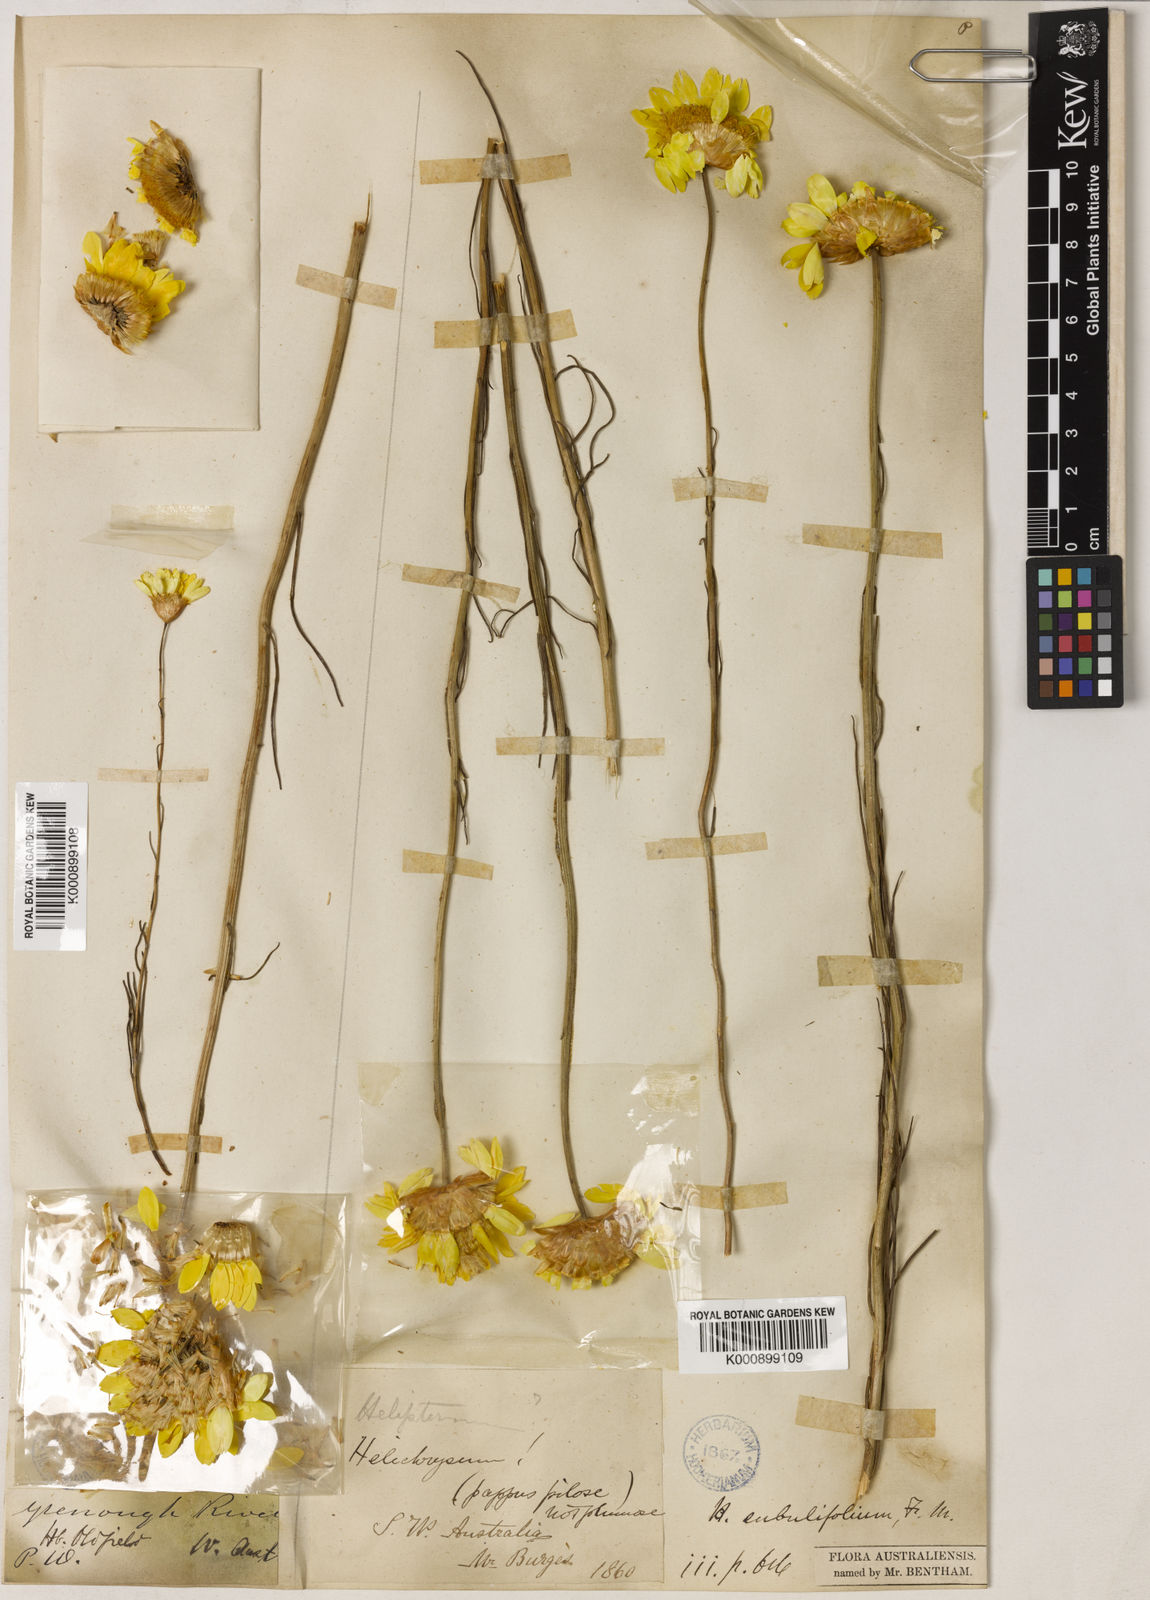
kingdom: Plantae
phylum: Tracheophyta
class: Magnoliopsida
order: Asterales
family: Asteraceae
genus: Schoenia
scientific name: Schoenia filifolia
